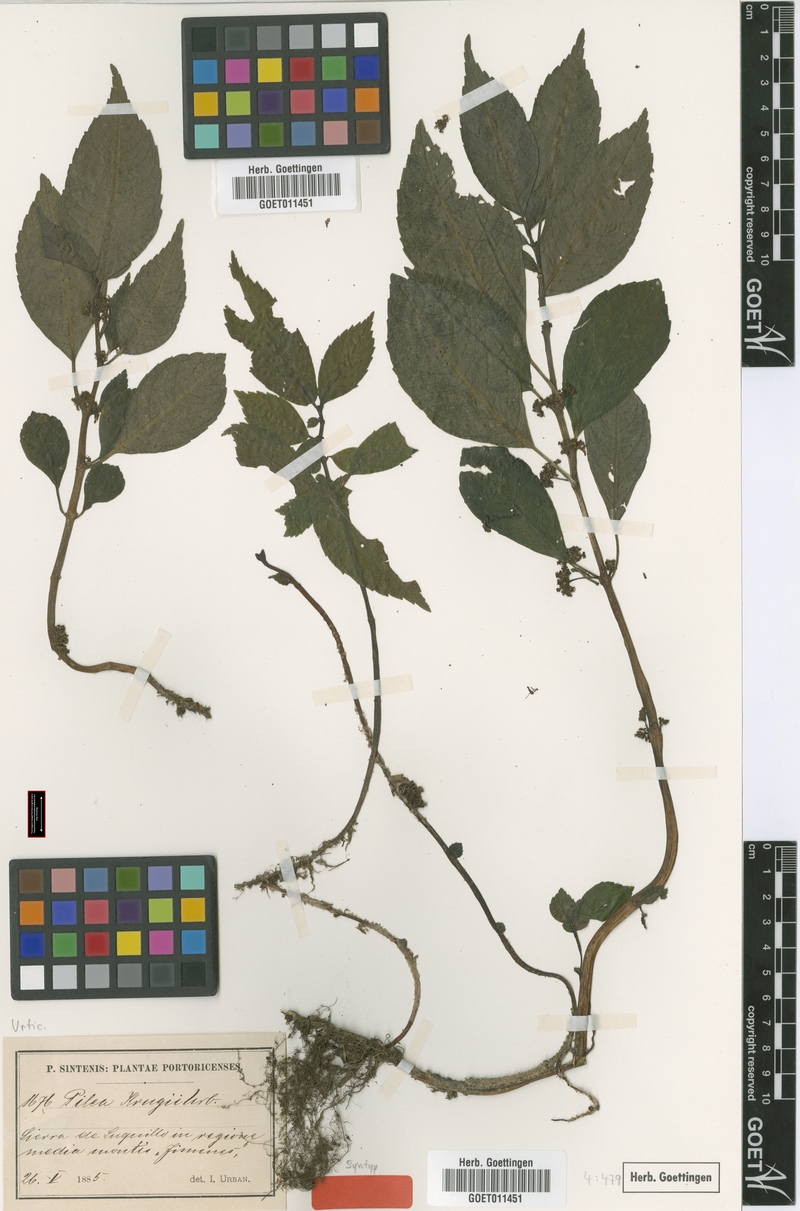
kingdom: Plantae
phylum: Tracheophyta
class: Magnoliopsida
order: Rosales
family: Urticaceae
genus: Pilea
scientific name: Pilea krugii
